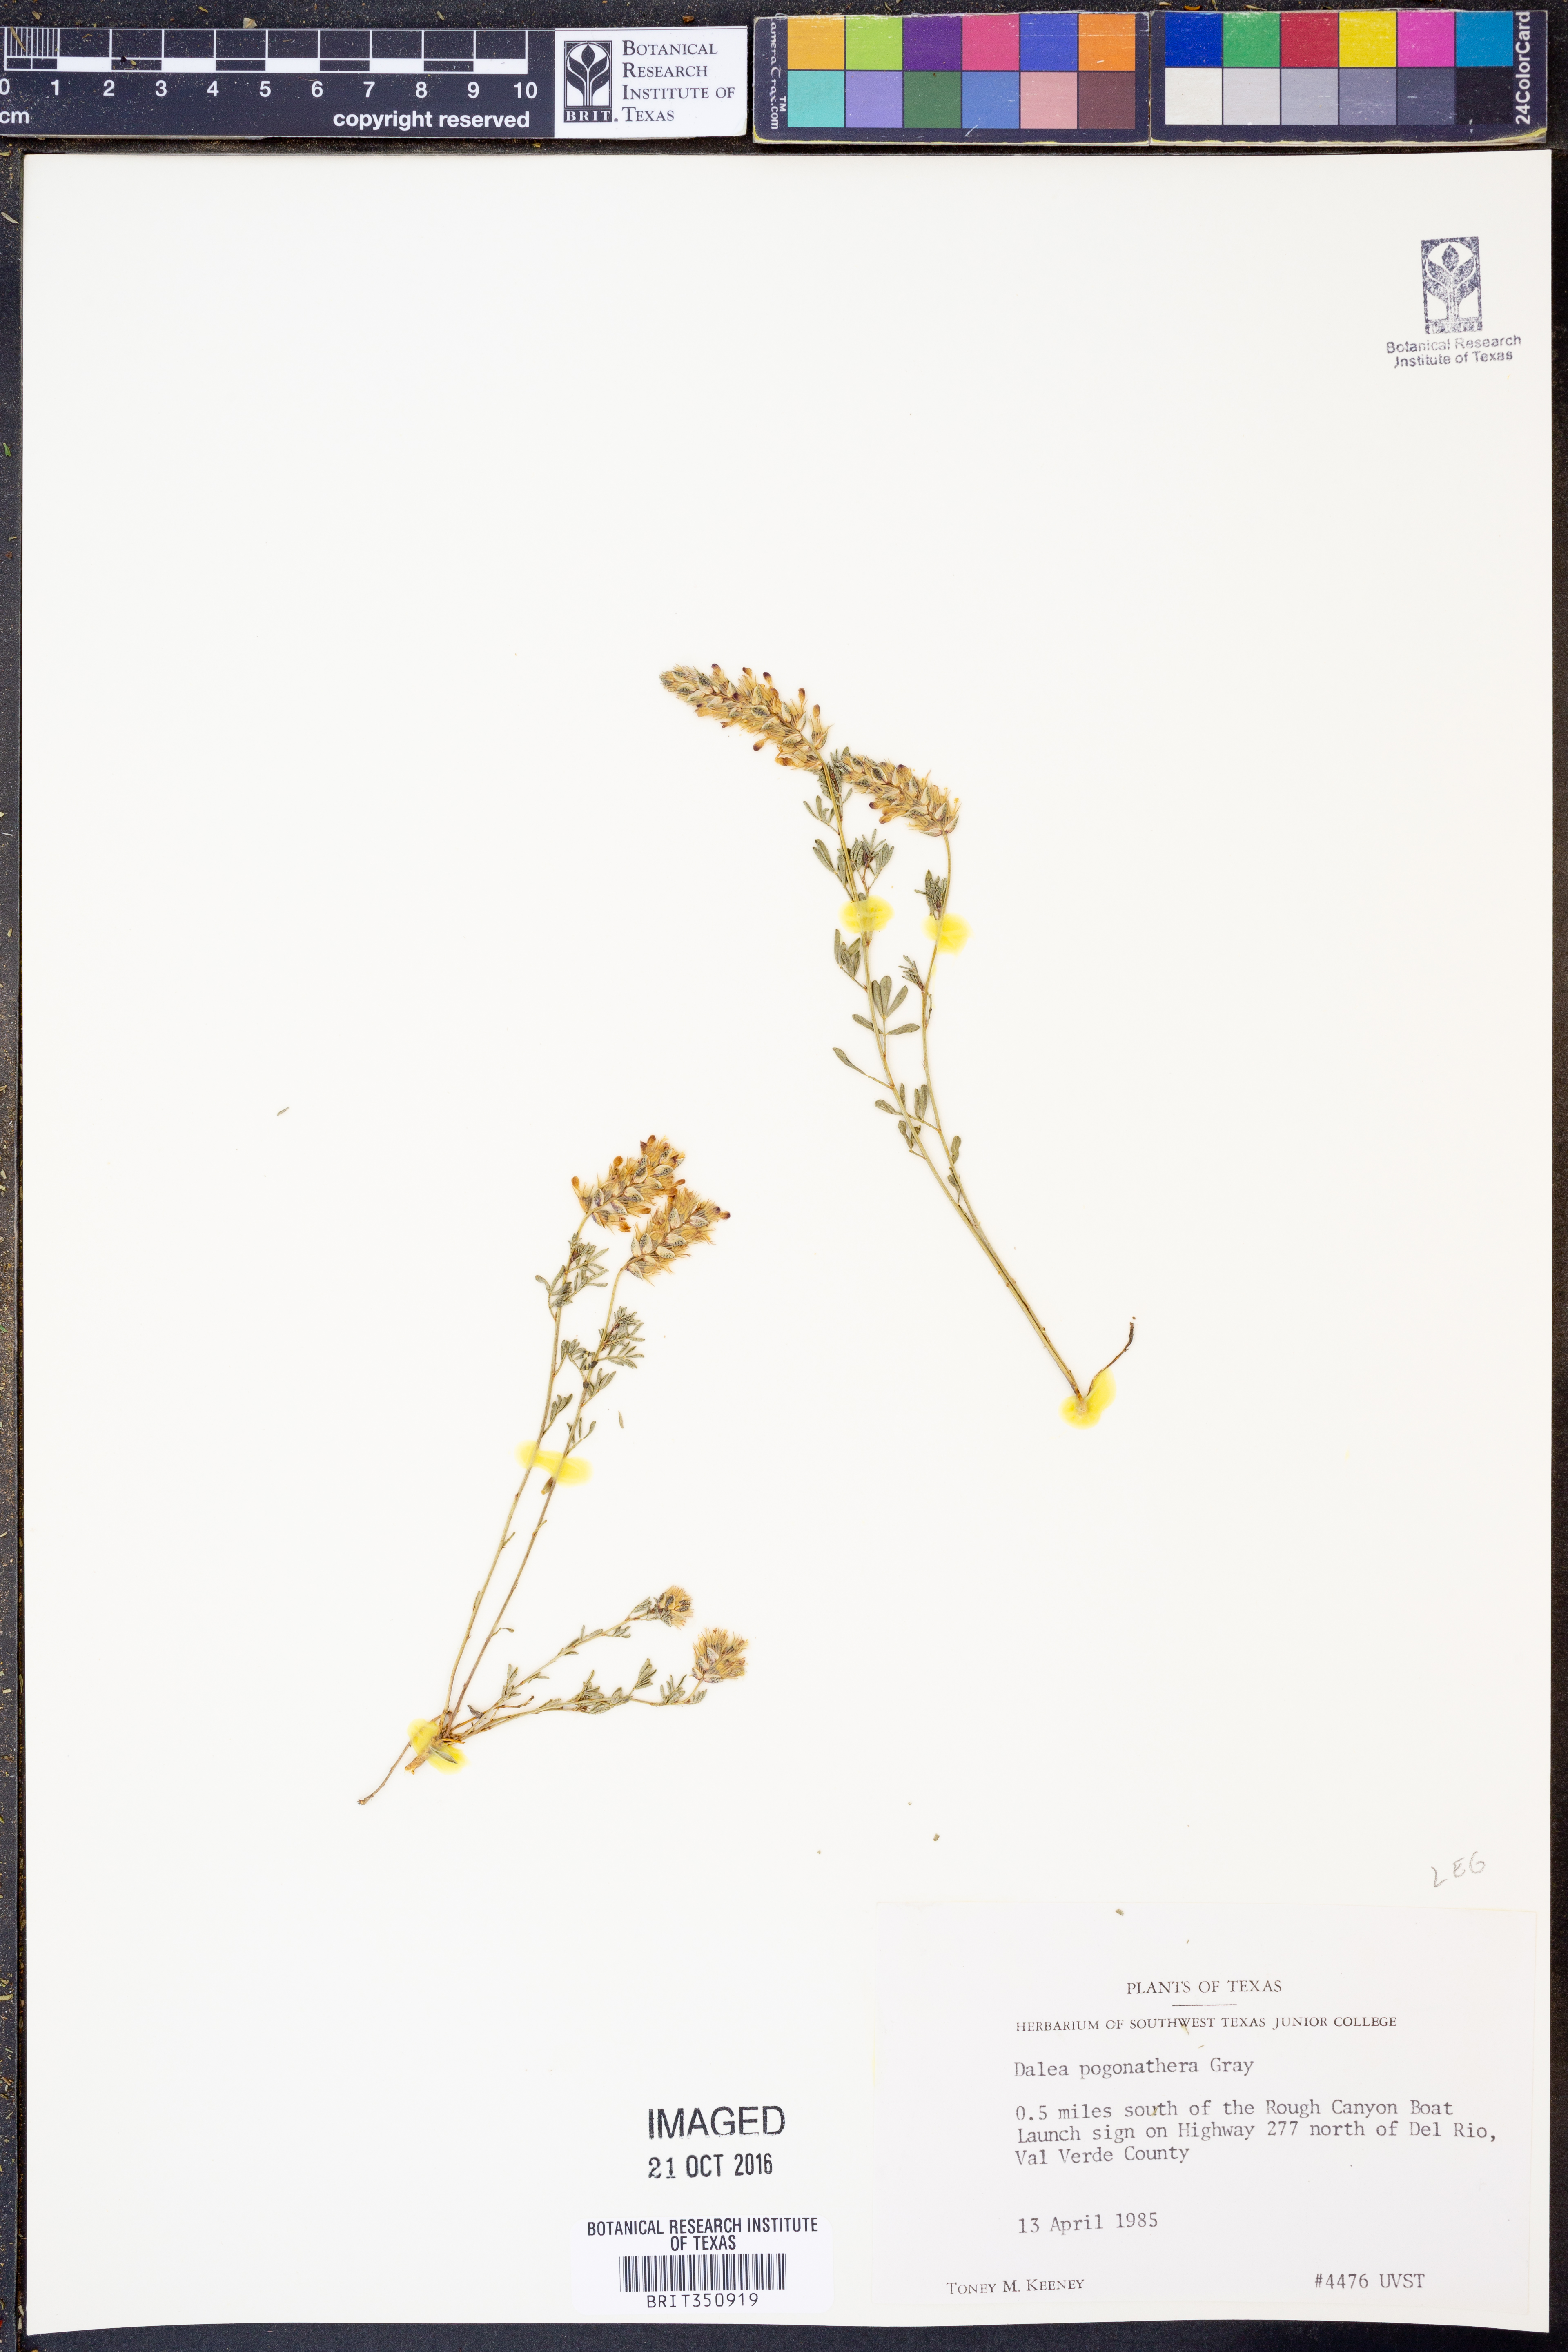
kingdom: Plantae
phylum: Tracheophyta
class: Magnoliopsida
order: Fabales
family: Fabaceae
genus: Dalea
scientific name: Dalea pogonathera
